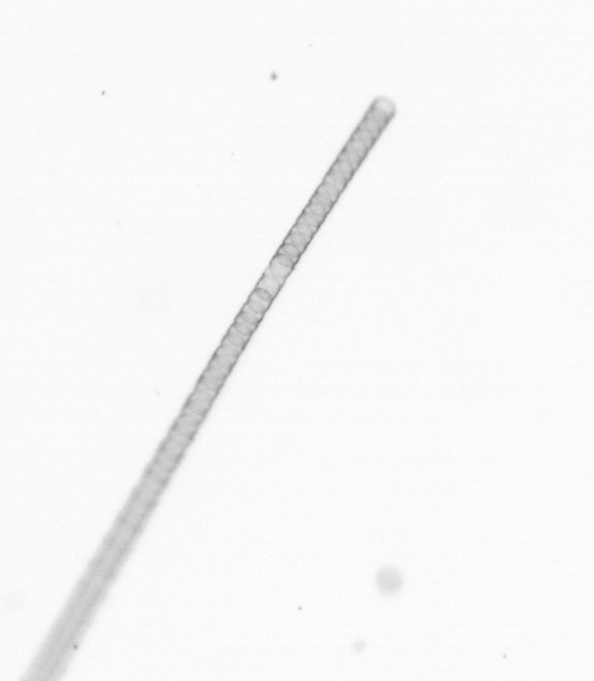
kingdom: Chromista
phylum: Ochrophyta
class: Bacillariophyceae
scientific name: Bacillariophyceae
